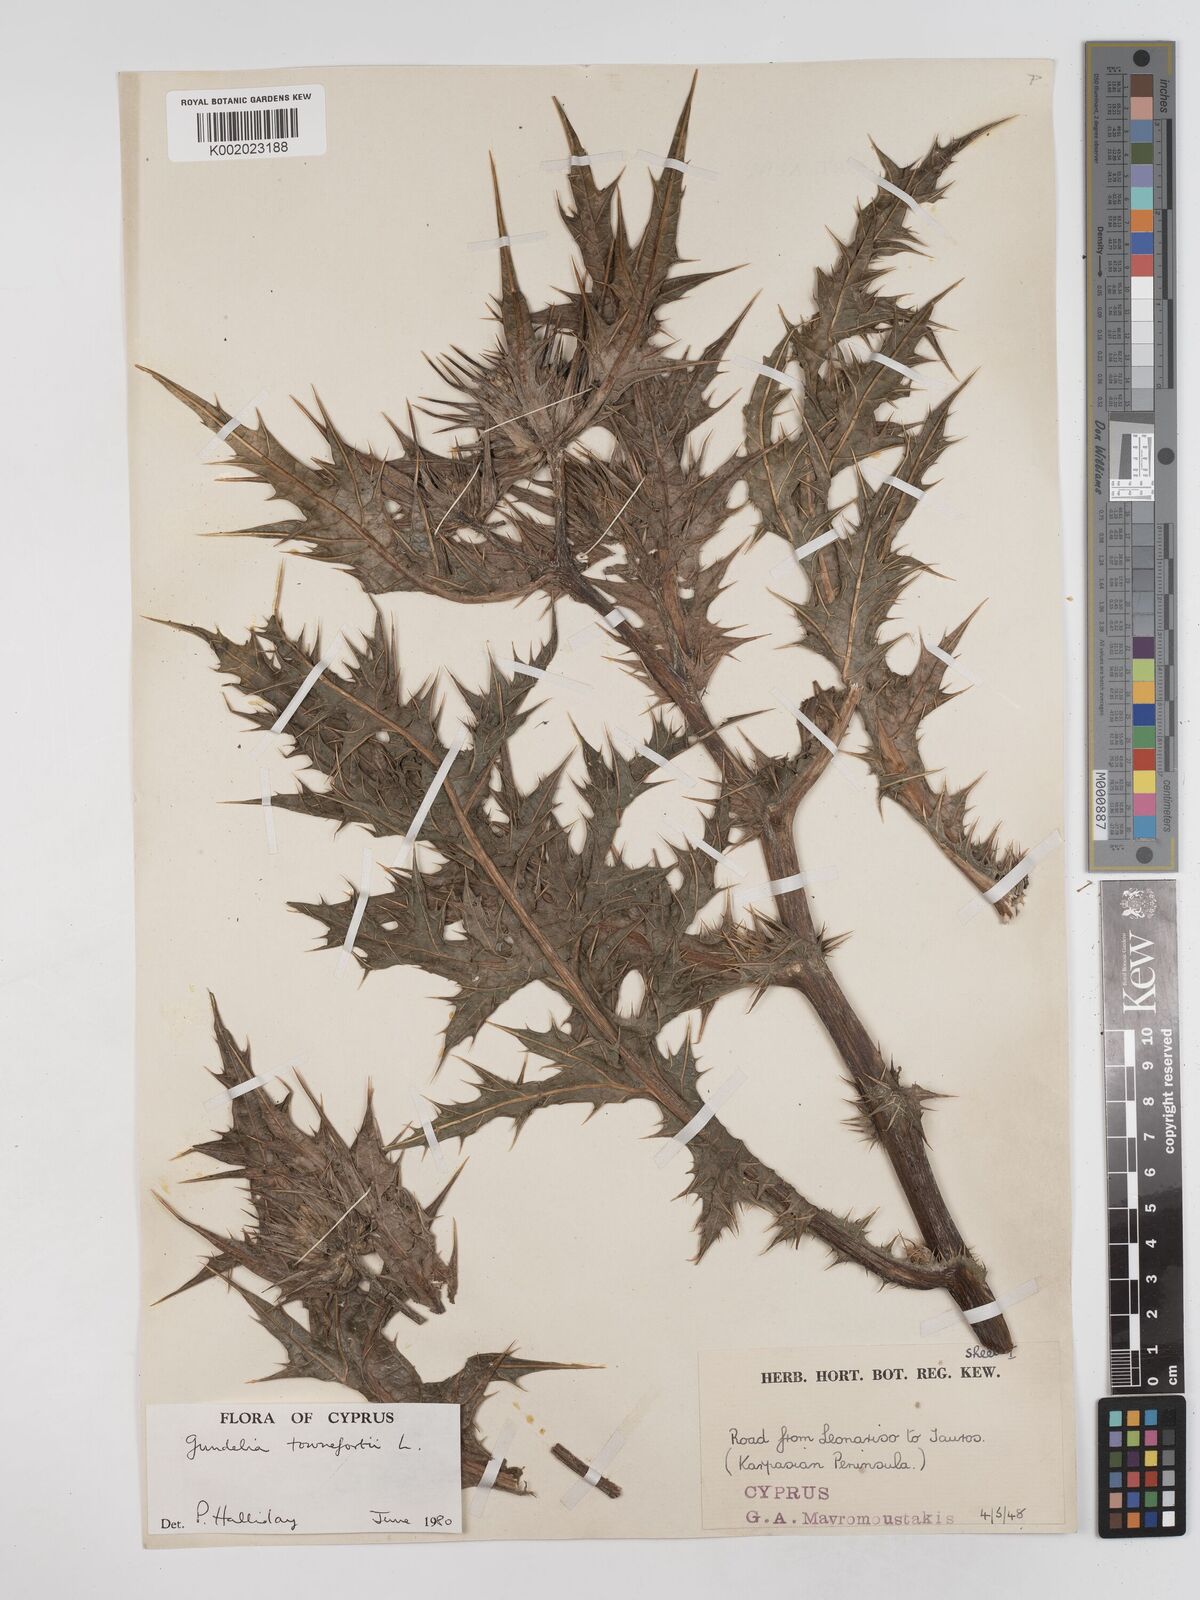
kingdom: Plantae
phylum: Tracheophyta
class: Magnoliopsida
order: Asterales
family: Asteraceae
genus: Gundelia
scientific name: Gundelia tournefortii
